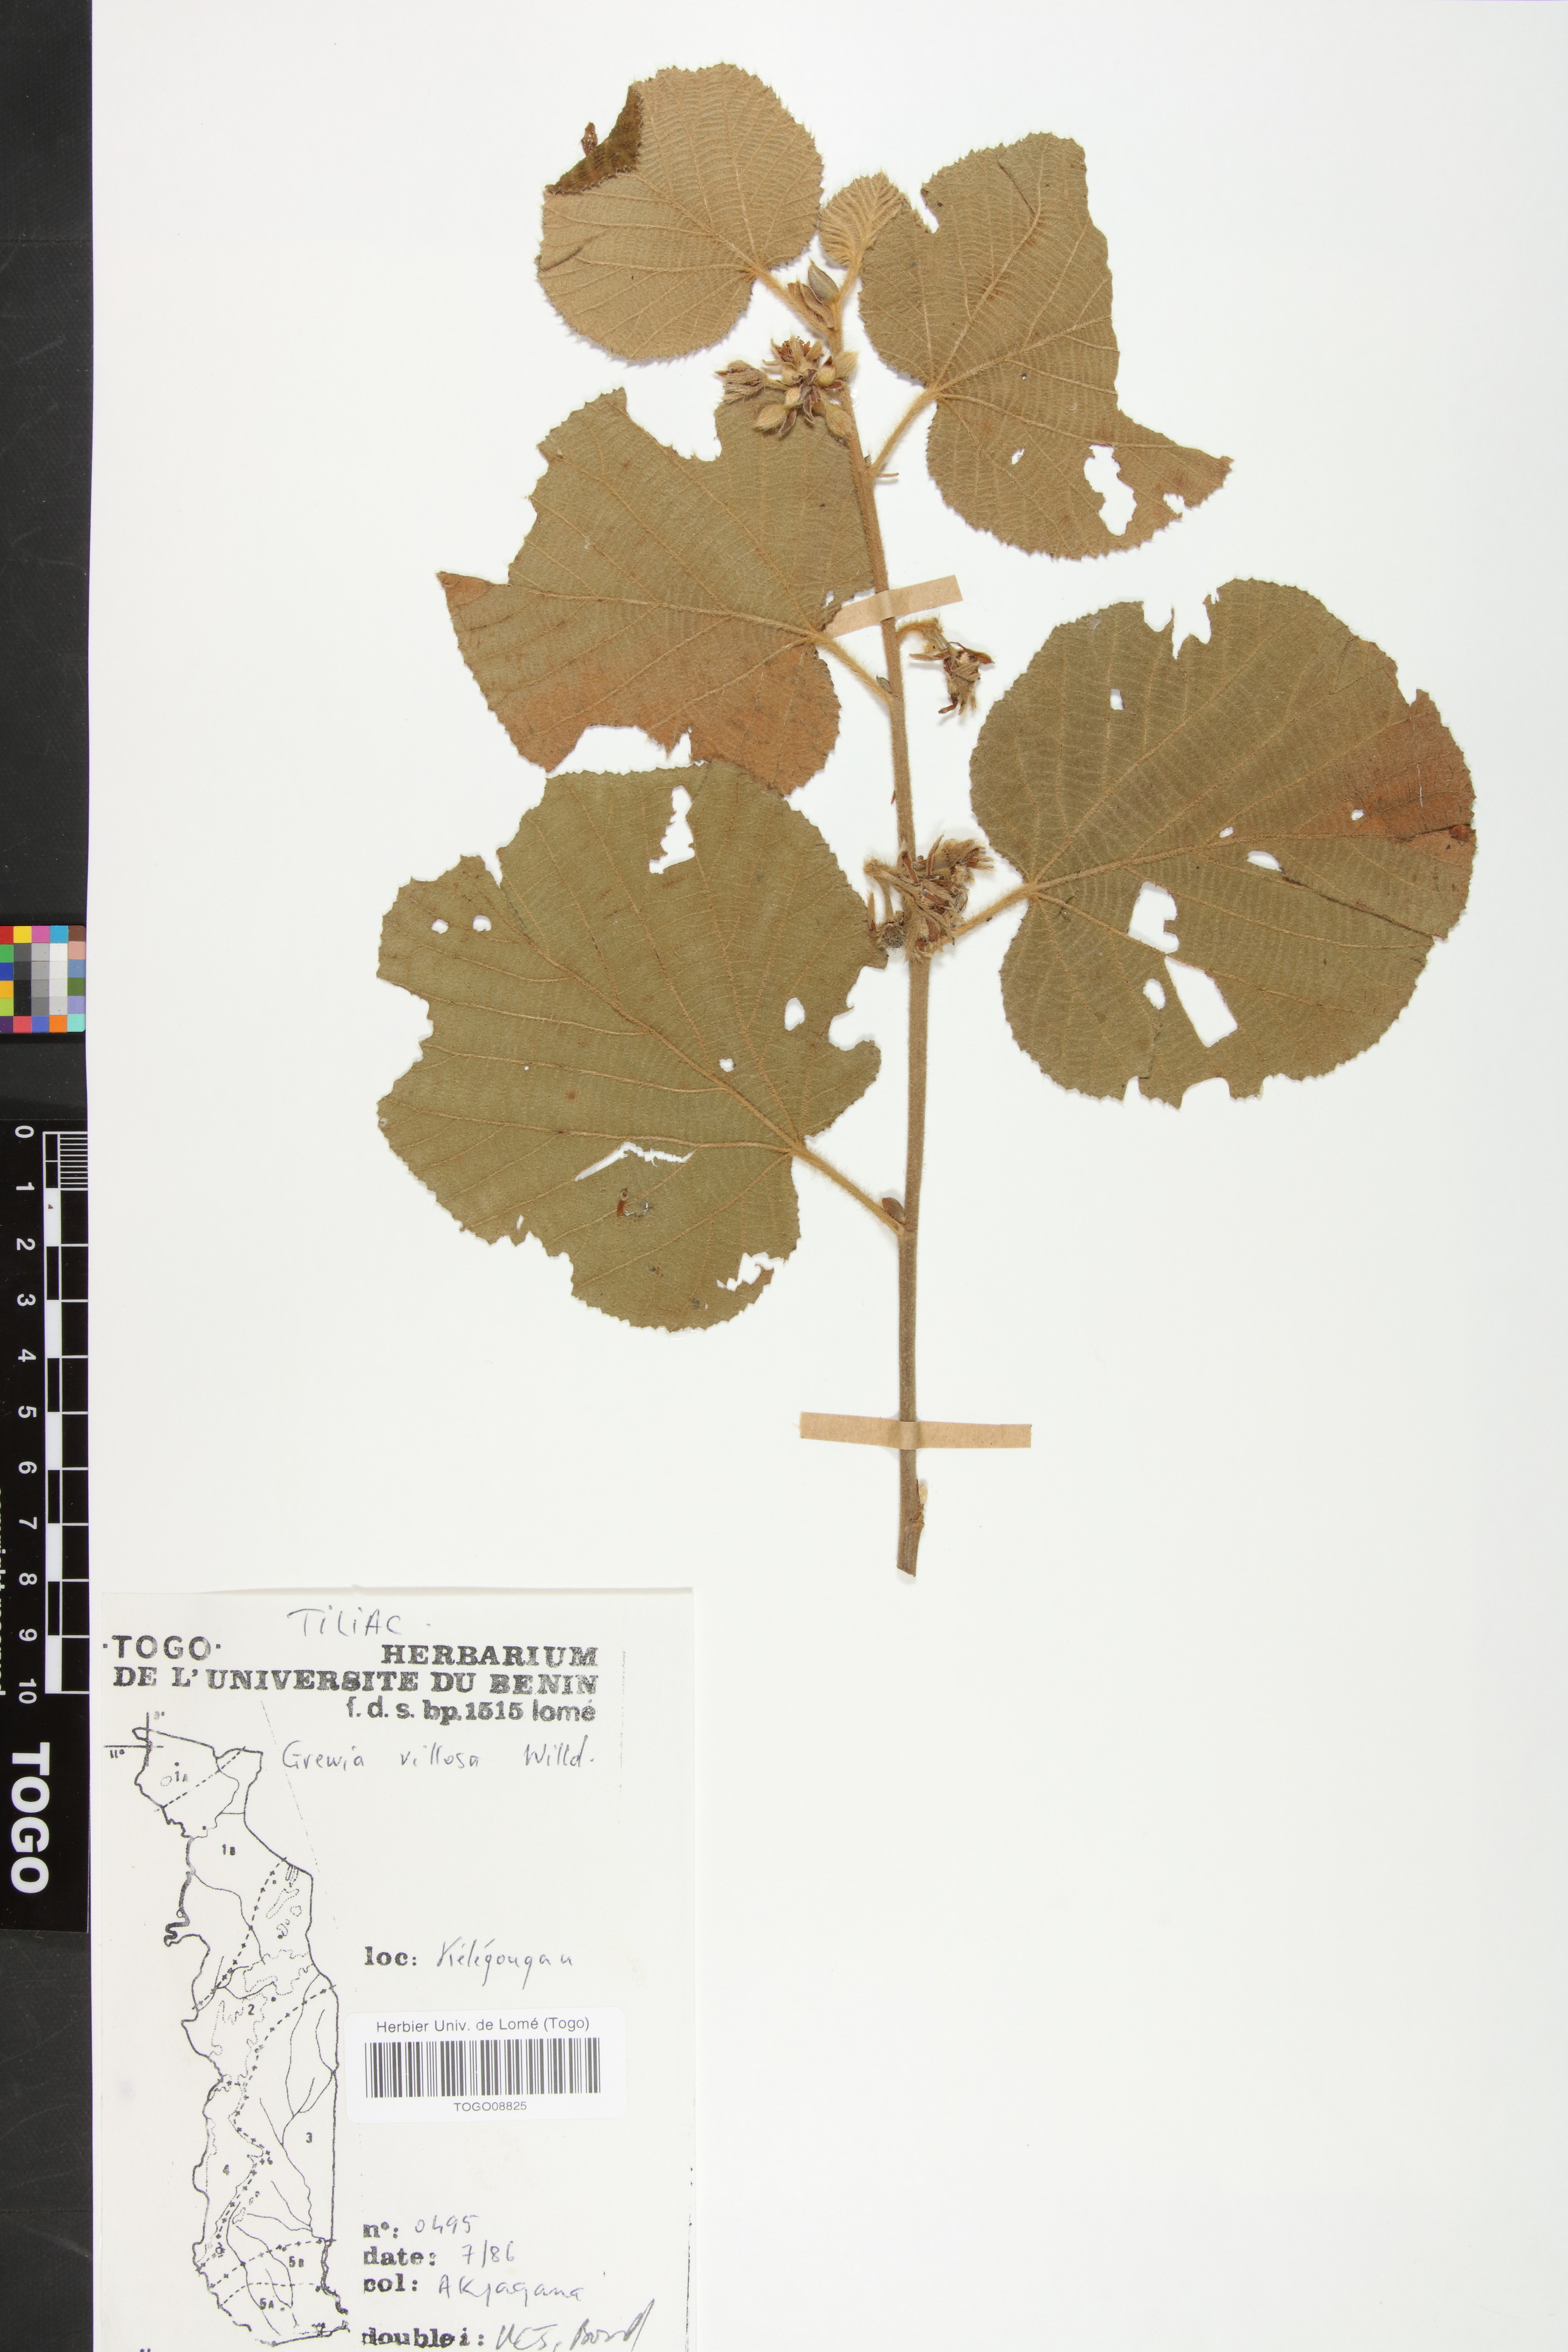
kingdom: Plantae
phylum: Tracheophyta
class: Magnoliopsida
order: Malvales
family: Malvaceae
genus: Grewia
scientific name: Grewia villosa
